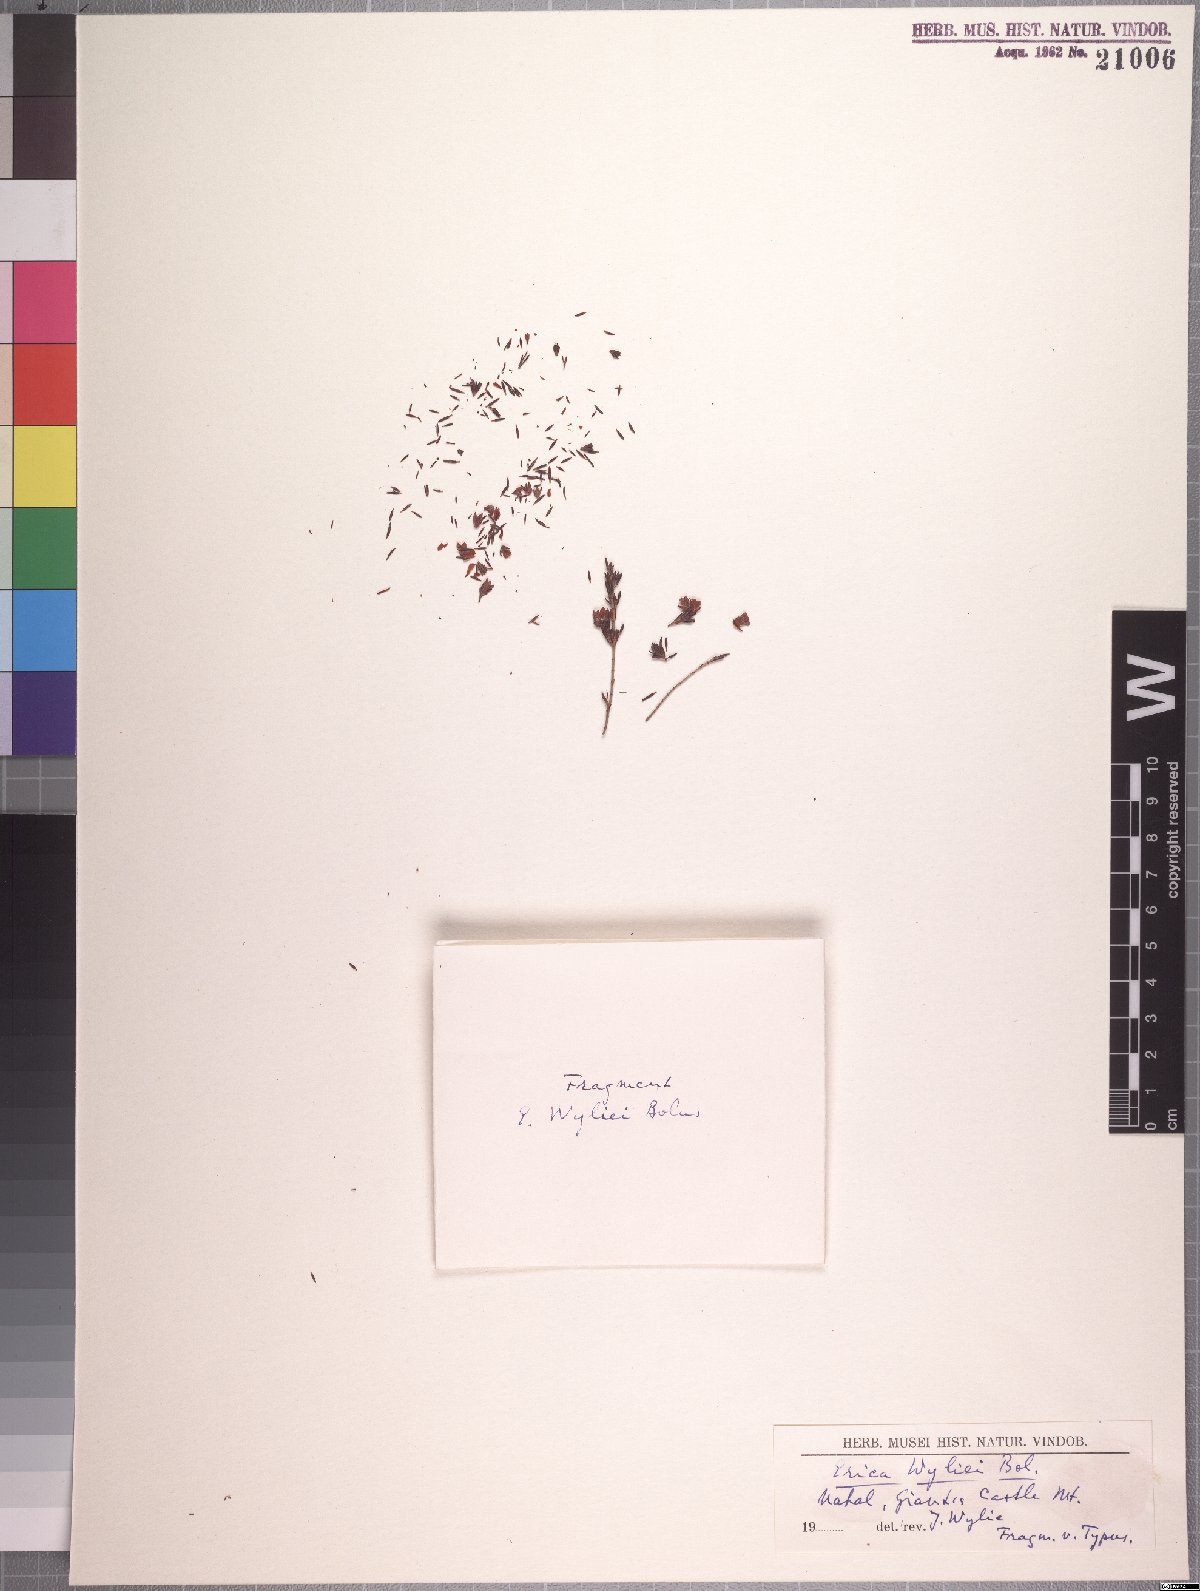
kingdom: Plantae
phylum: Tracheophyta
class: Magnoliopsida
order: Ericales
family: Ericaceae
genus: Erica
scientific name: Erica wyliei
